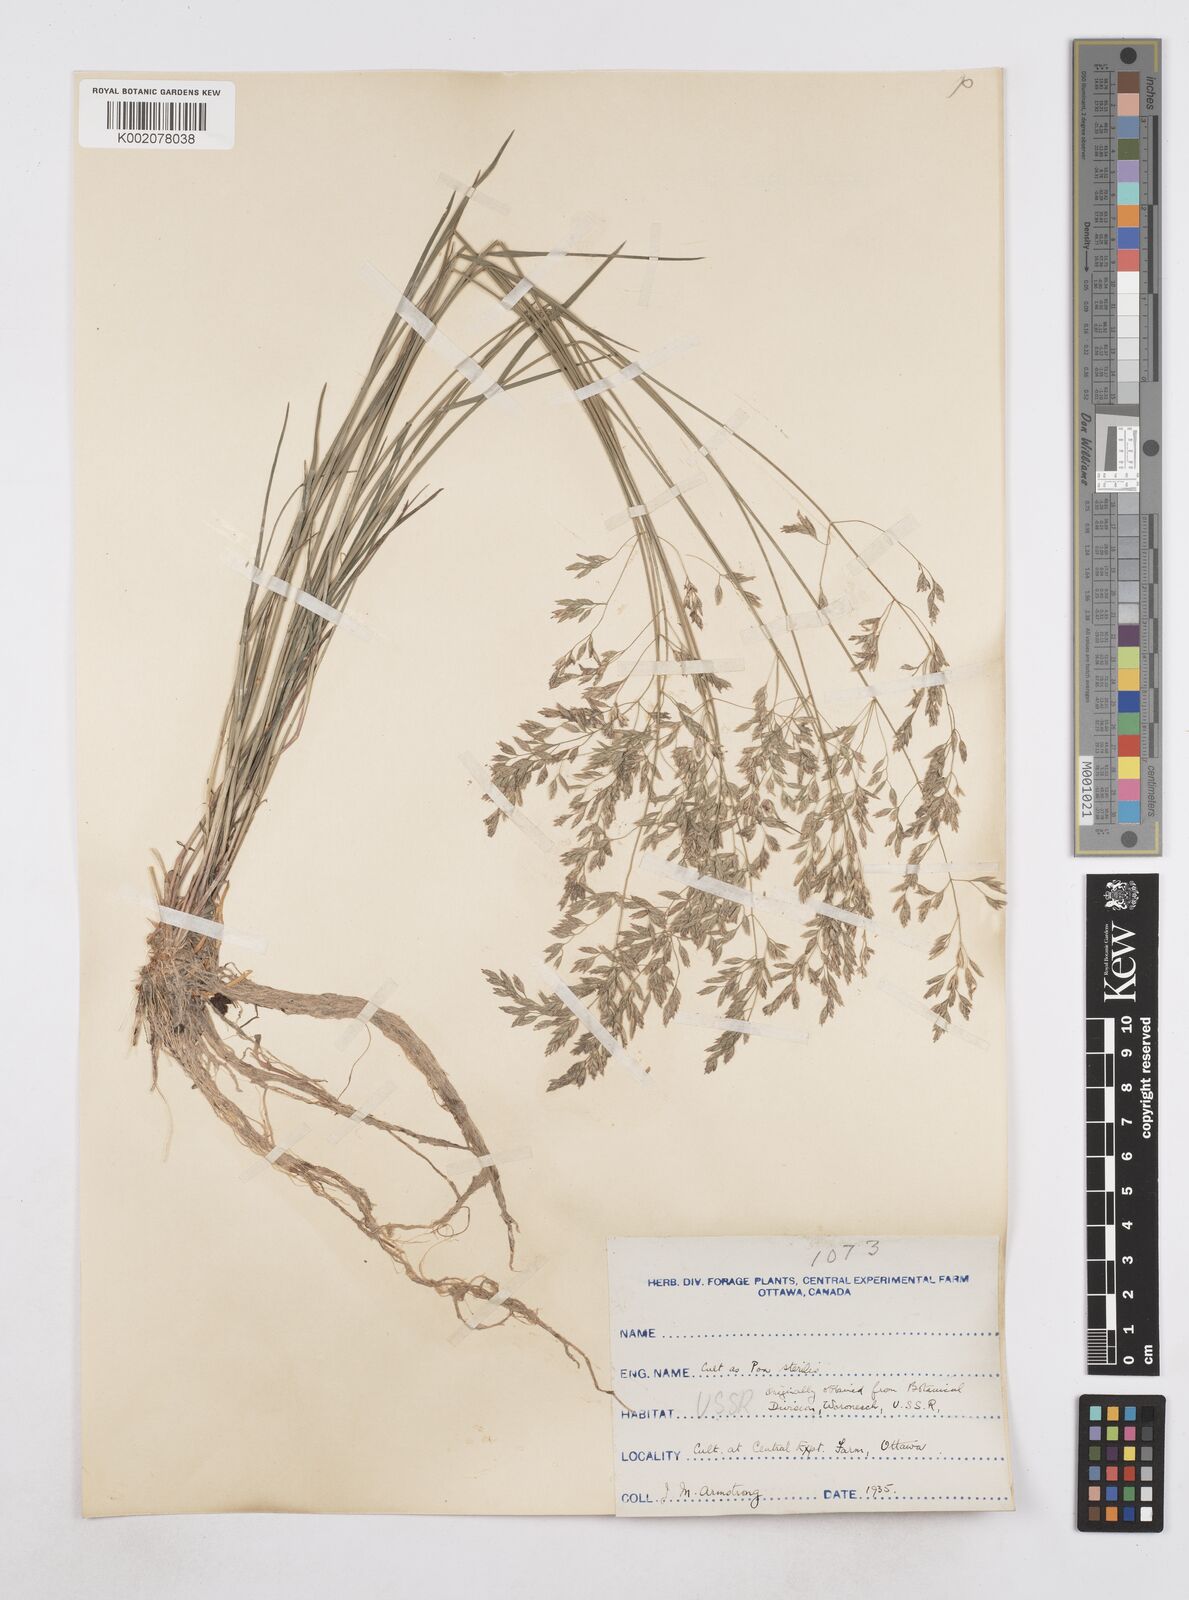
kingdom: Plantae
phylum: Tracheophyta
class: Liliopsida
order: Poales
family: Poaceae
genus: Poa
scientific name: Poa
